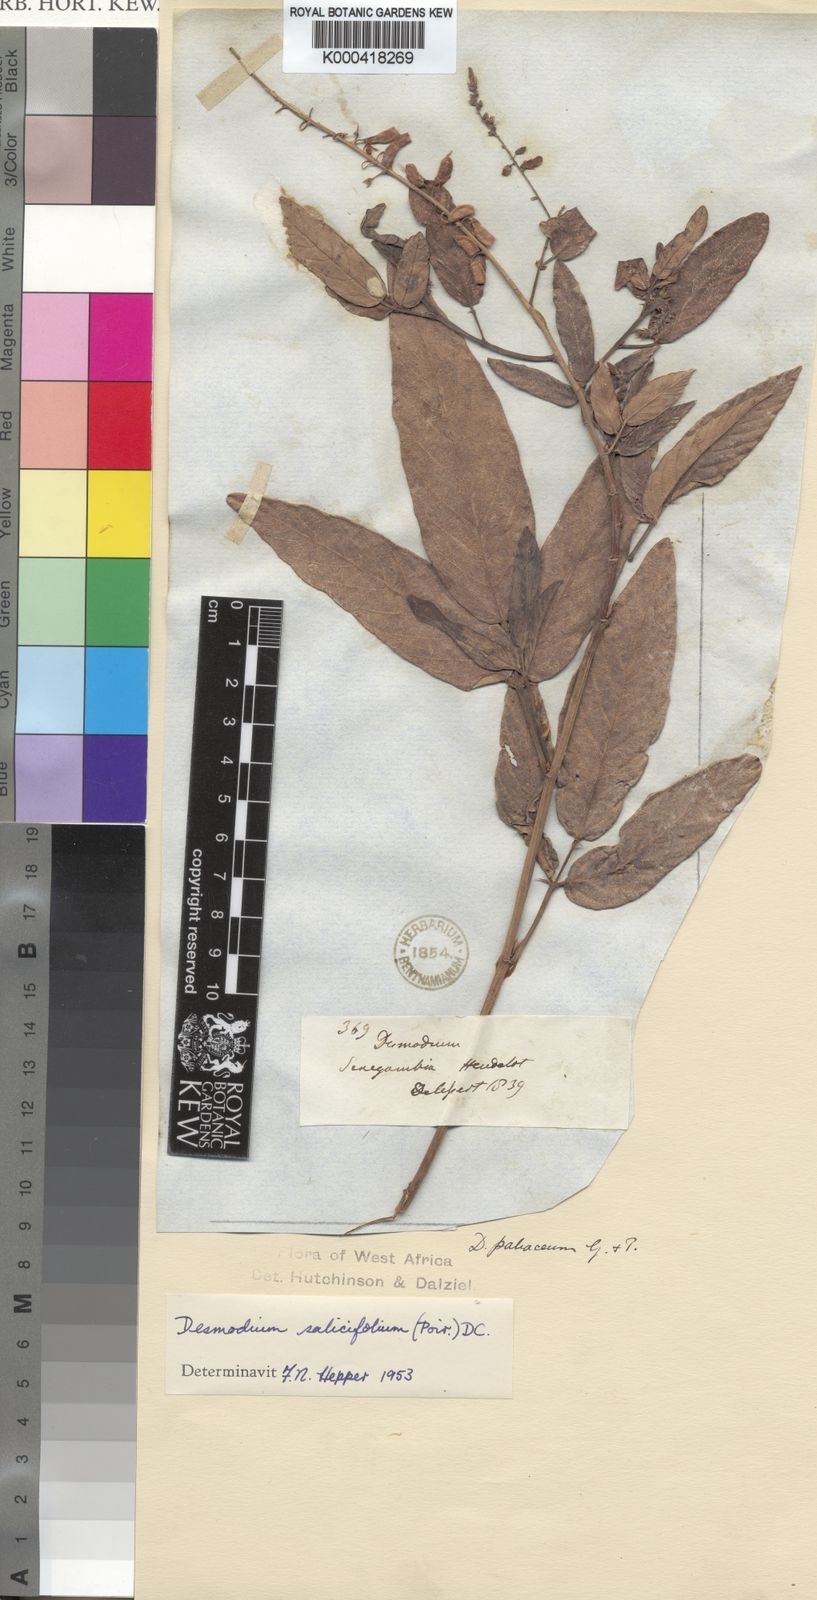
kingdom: Plantae
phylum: Tracheophyta
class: Magnoliopsida
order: Fabales
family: Fabaceae
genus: Pleurolobus
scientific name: Pleurolobus salicifolius
